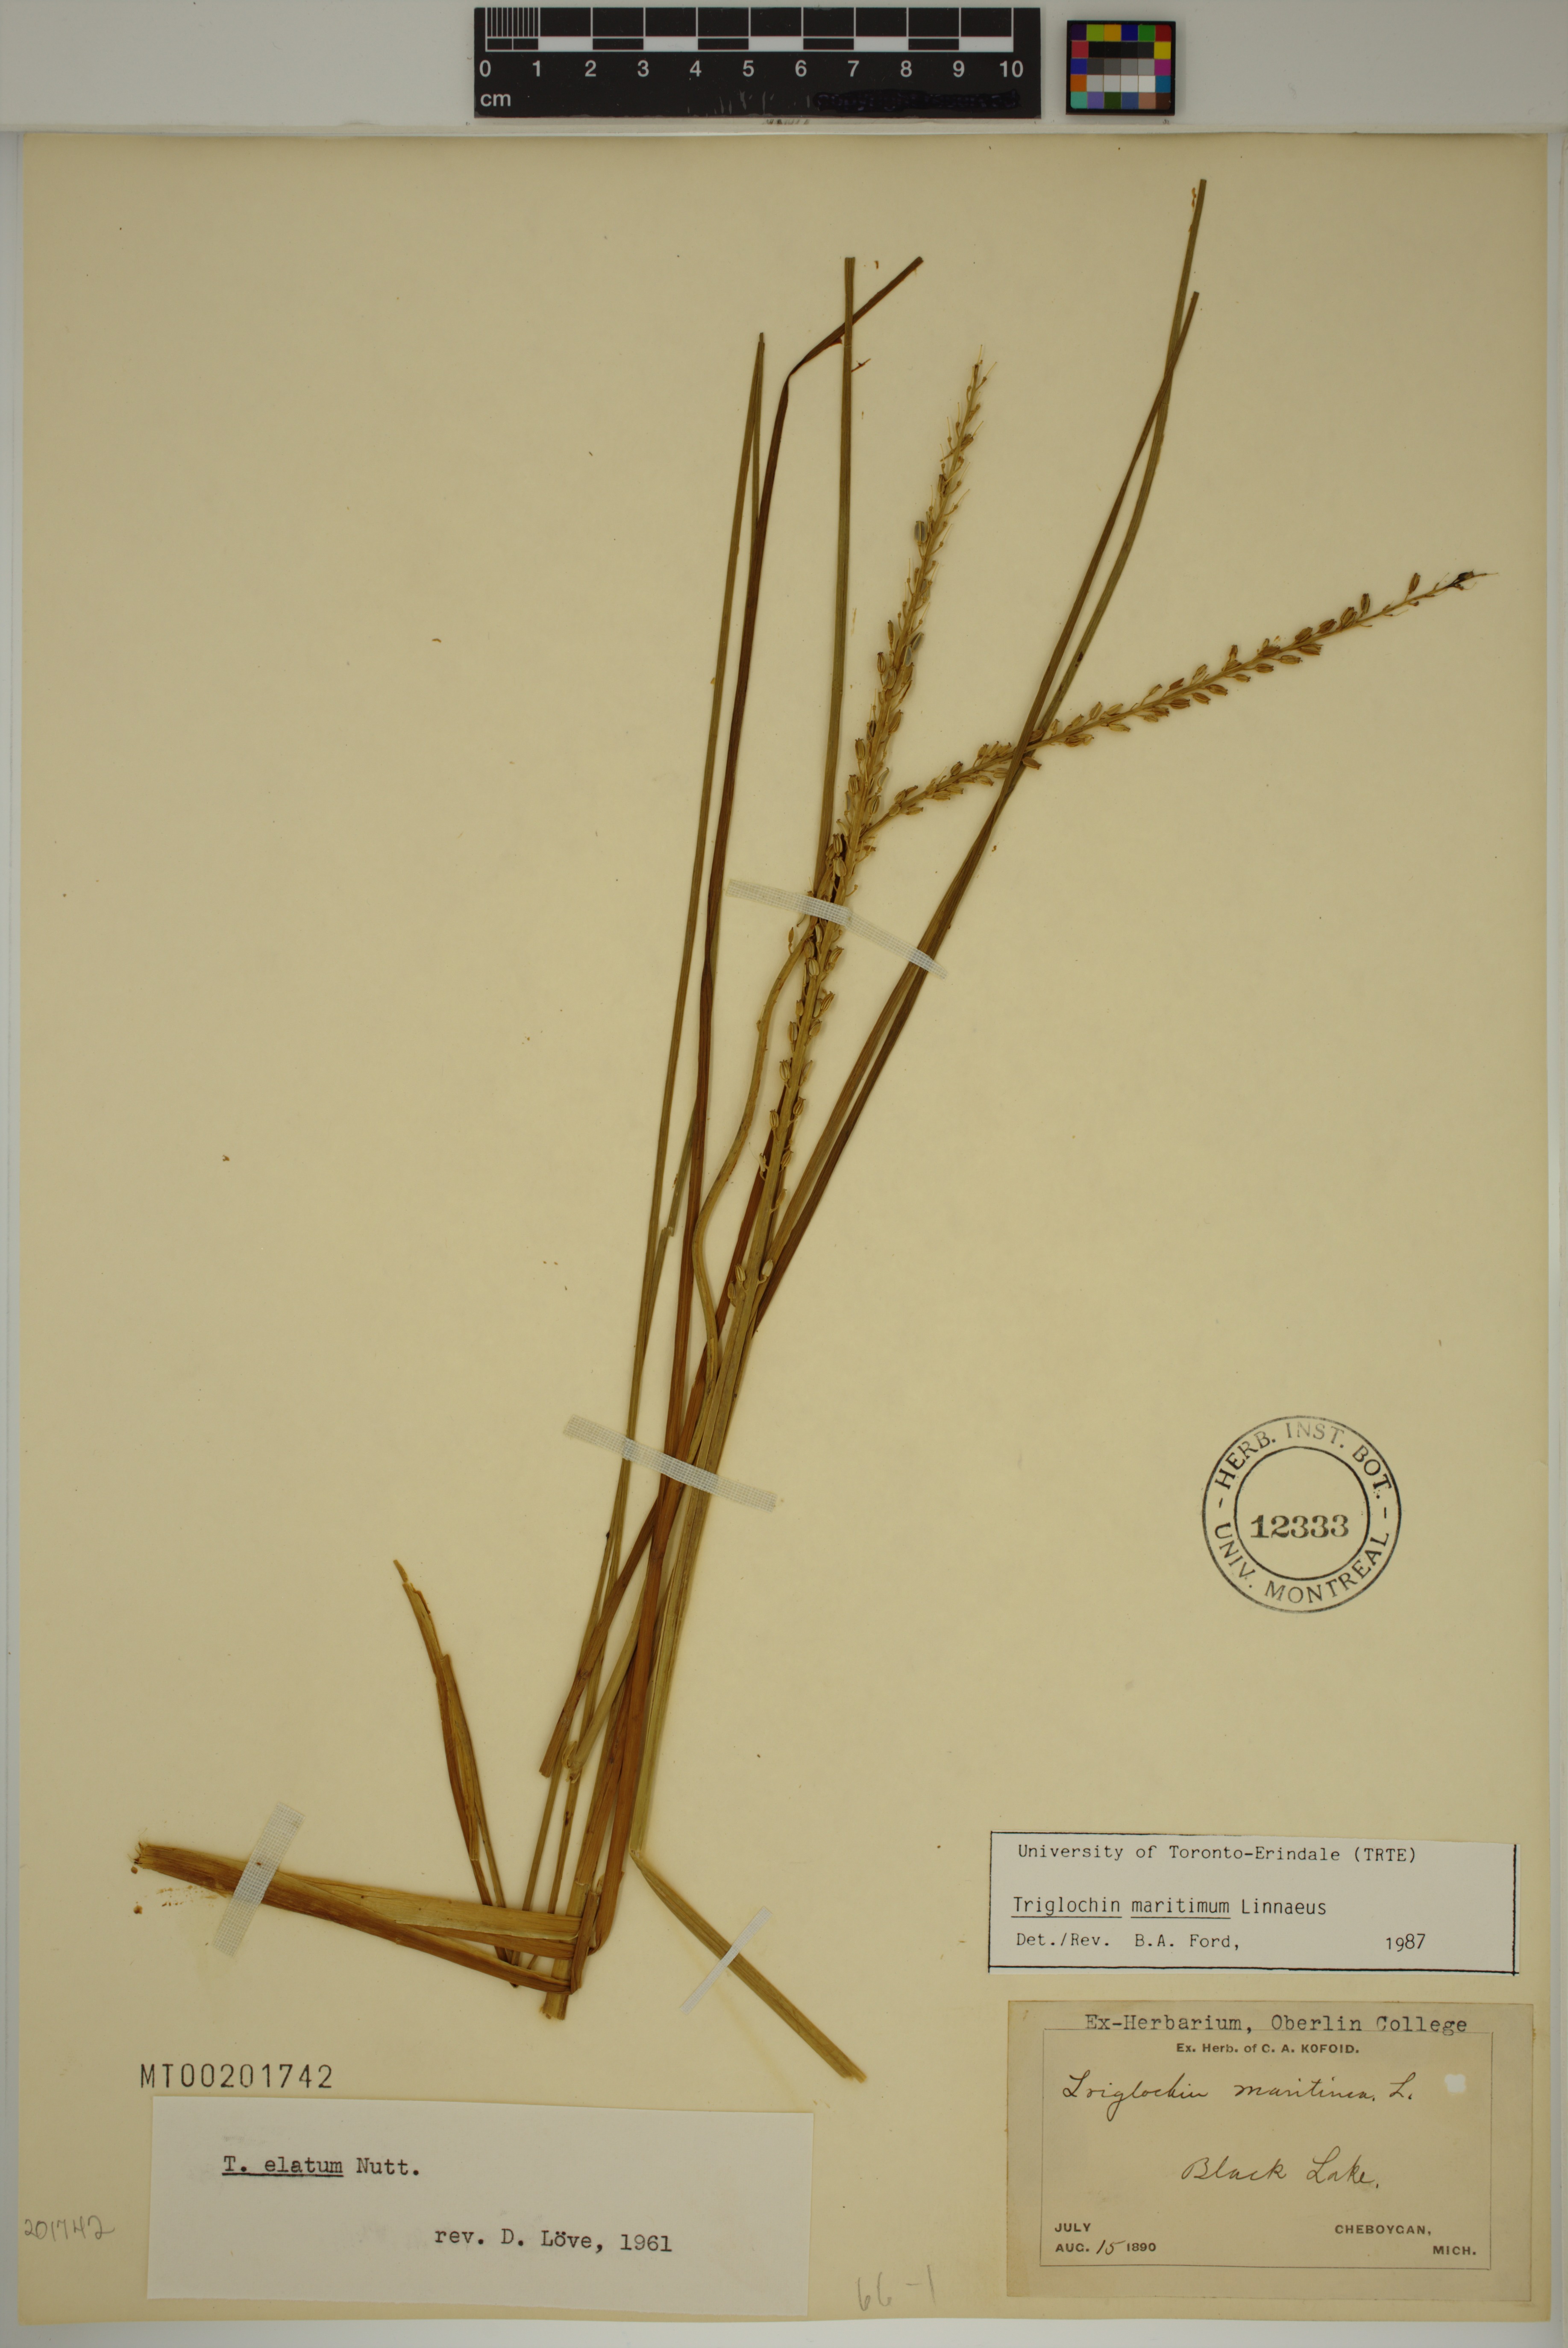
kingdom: Plantae
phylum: Tracheophyta
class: Liliopsida
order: Alismatales
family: Juncaginaceae
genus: Triglochin
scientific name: Triglochin maritima
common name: Sea arrowgrass
